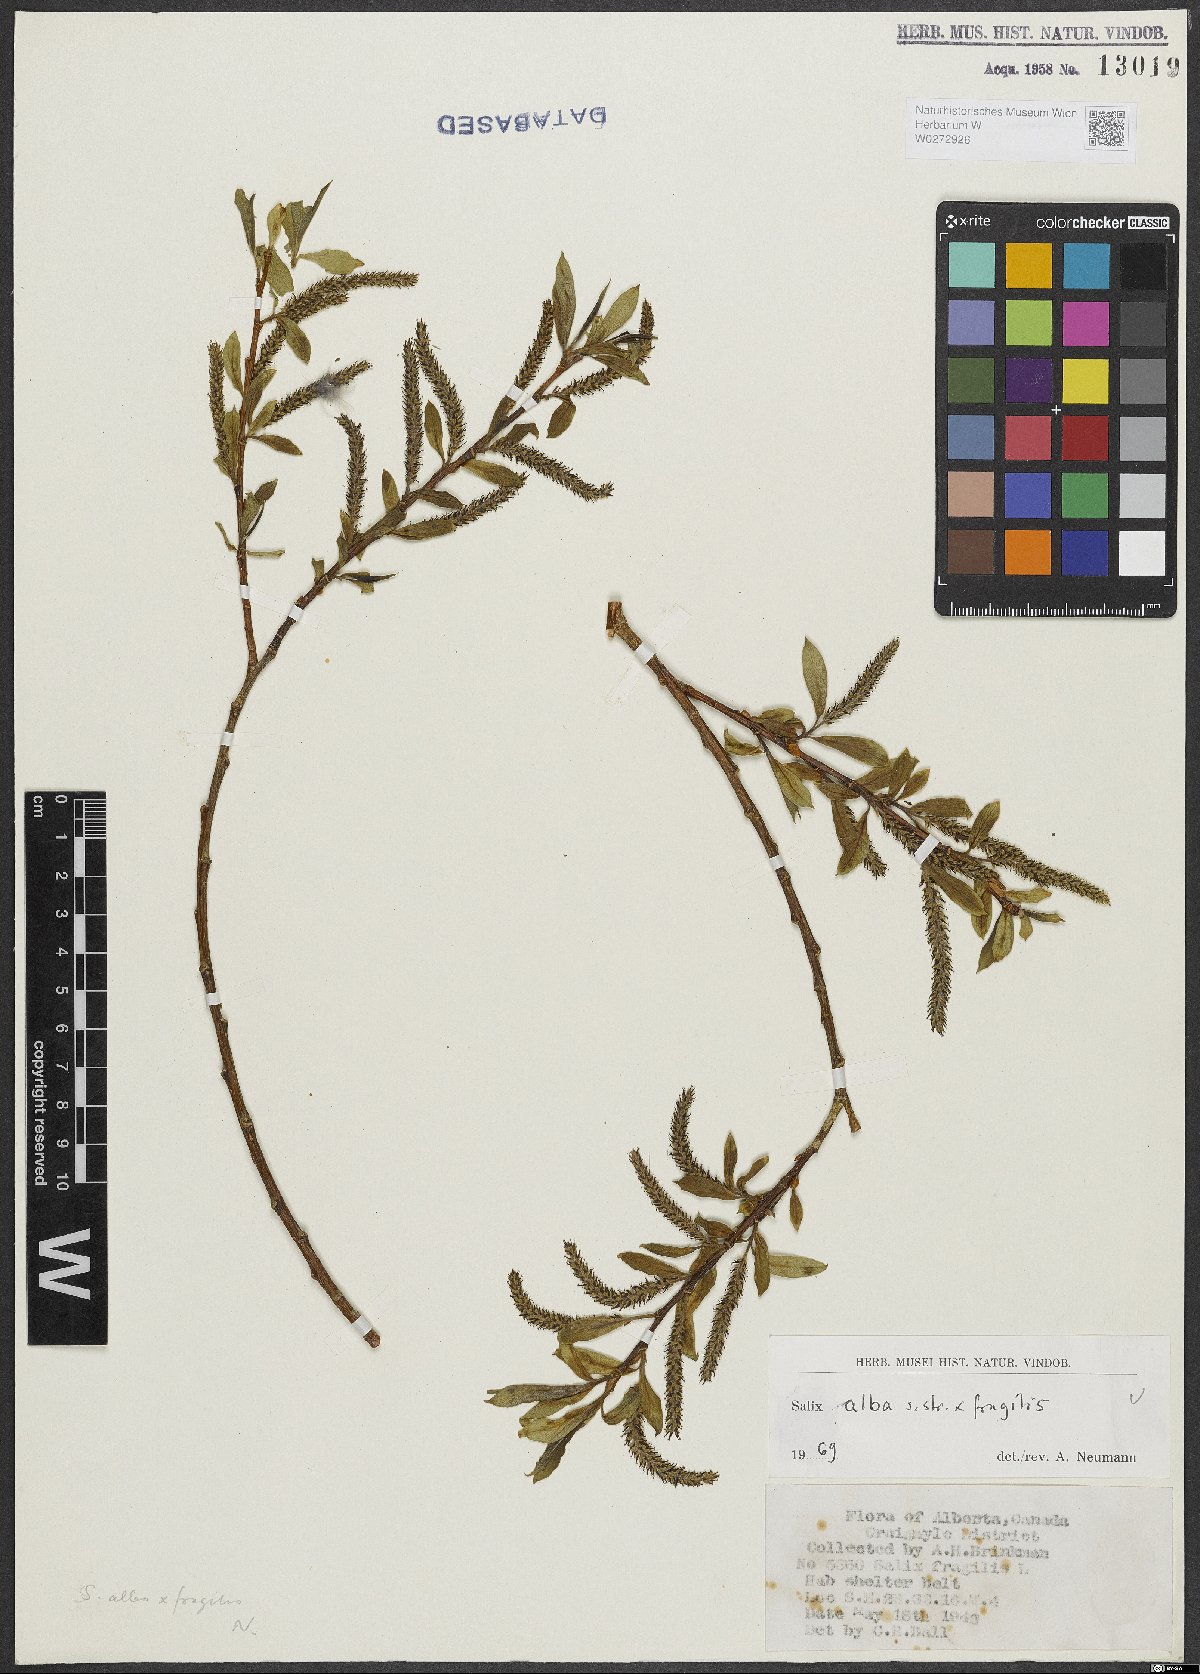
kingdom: Plantae
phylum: Tracheophyta
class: Magnoliopsida
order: Malpighiales
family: Salicaceae
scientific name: Salicaceae
